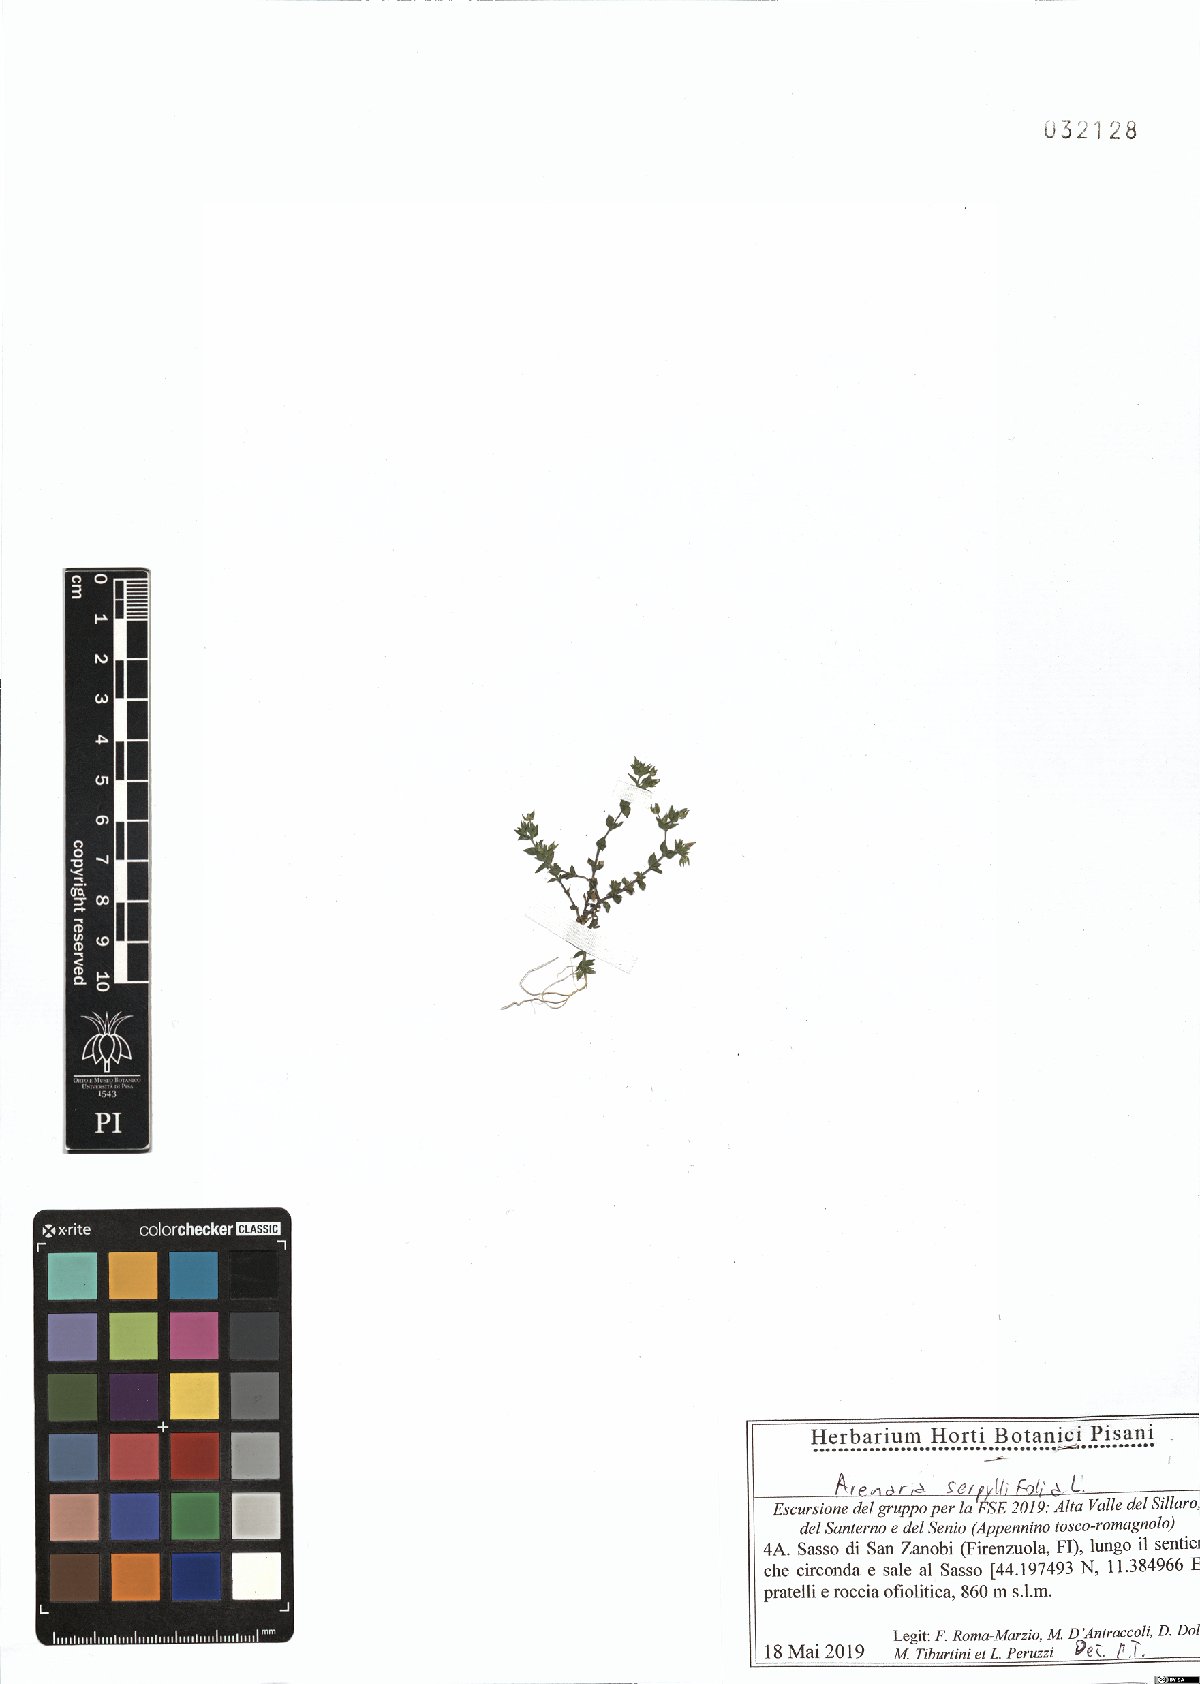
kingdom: Plantae
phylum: Tracheophyta
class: Magnoliopsida
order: Caryophyllales
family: Caryophyllaceae
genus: Arenaria
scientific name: Arenaria serpyllifolia
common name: Thyme-leaved sandwort
